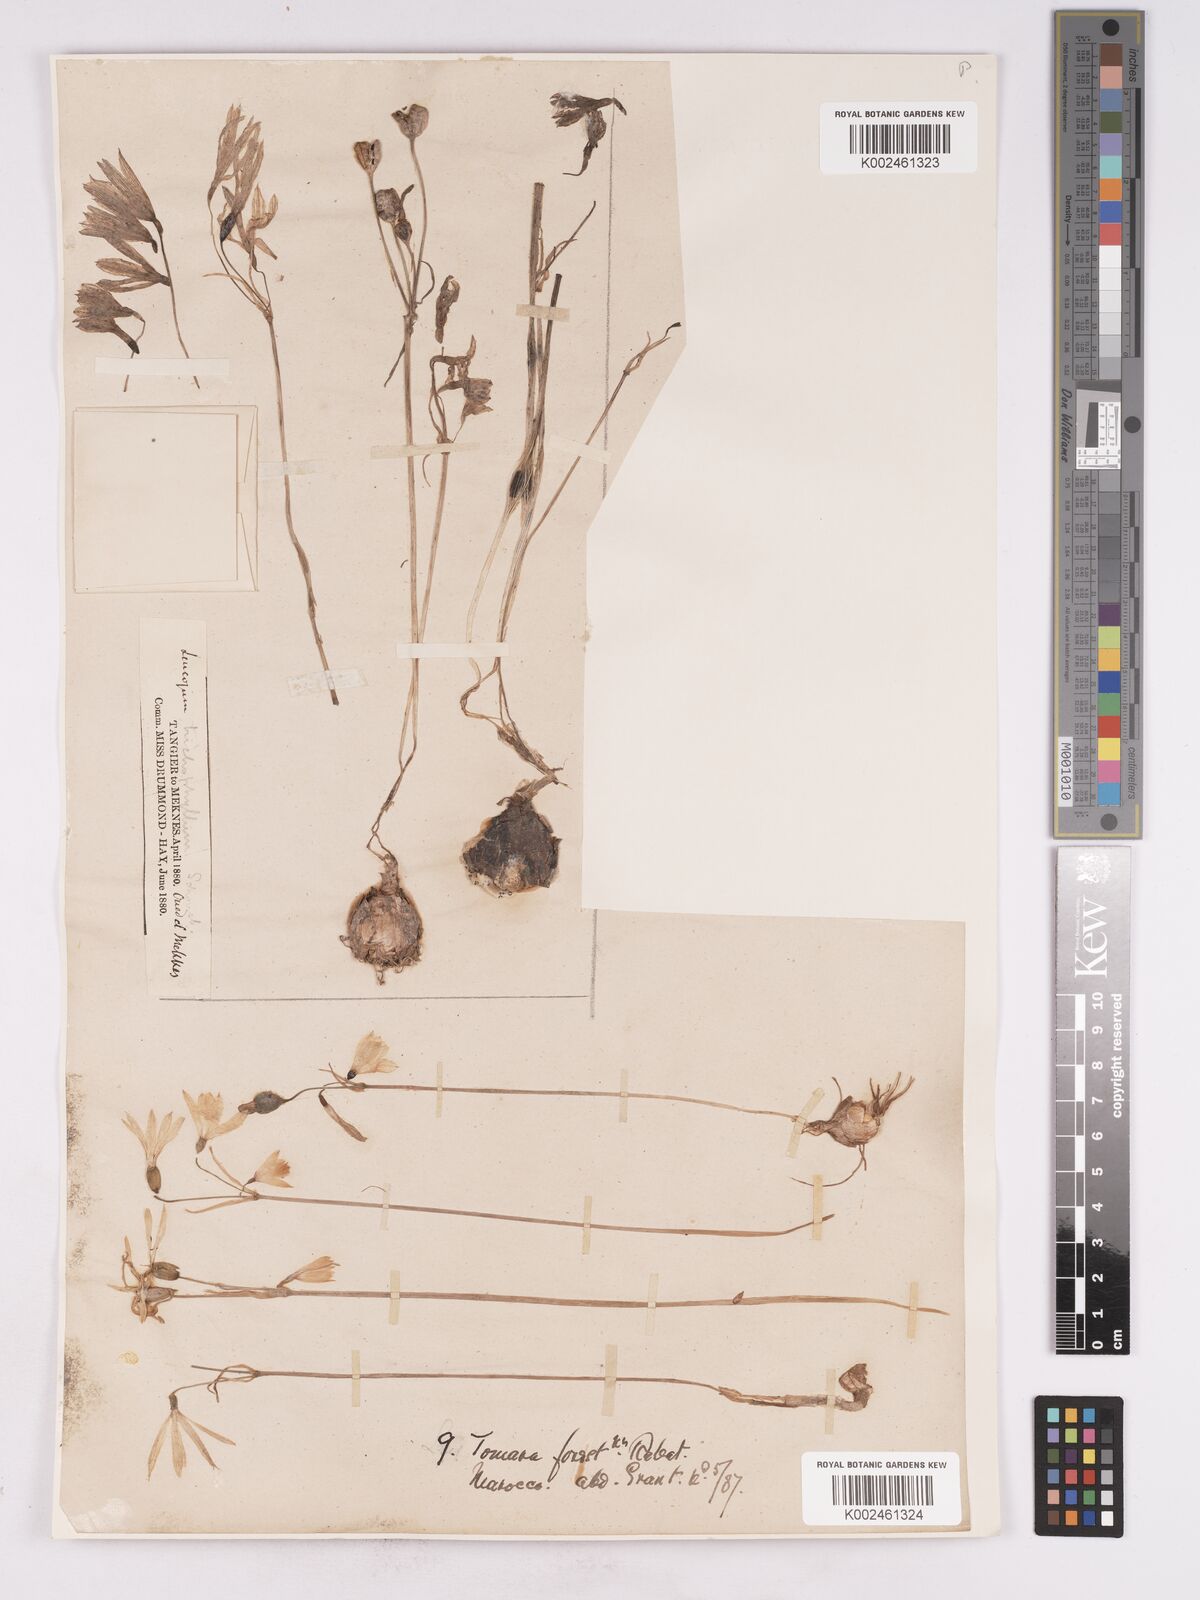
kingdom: Plantae
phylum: Tracheophyta
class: Liliopsida
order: Asparagales
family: Amaryllidaceae
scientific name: Amaryllidaceae
